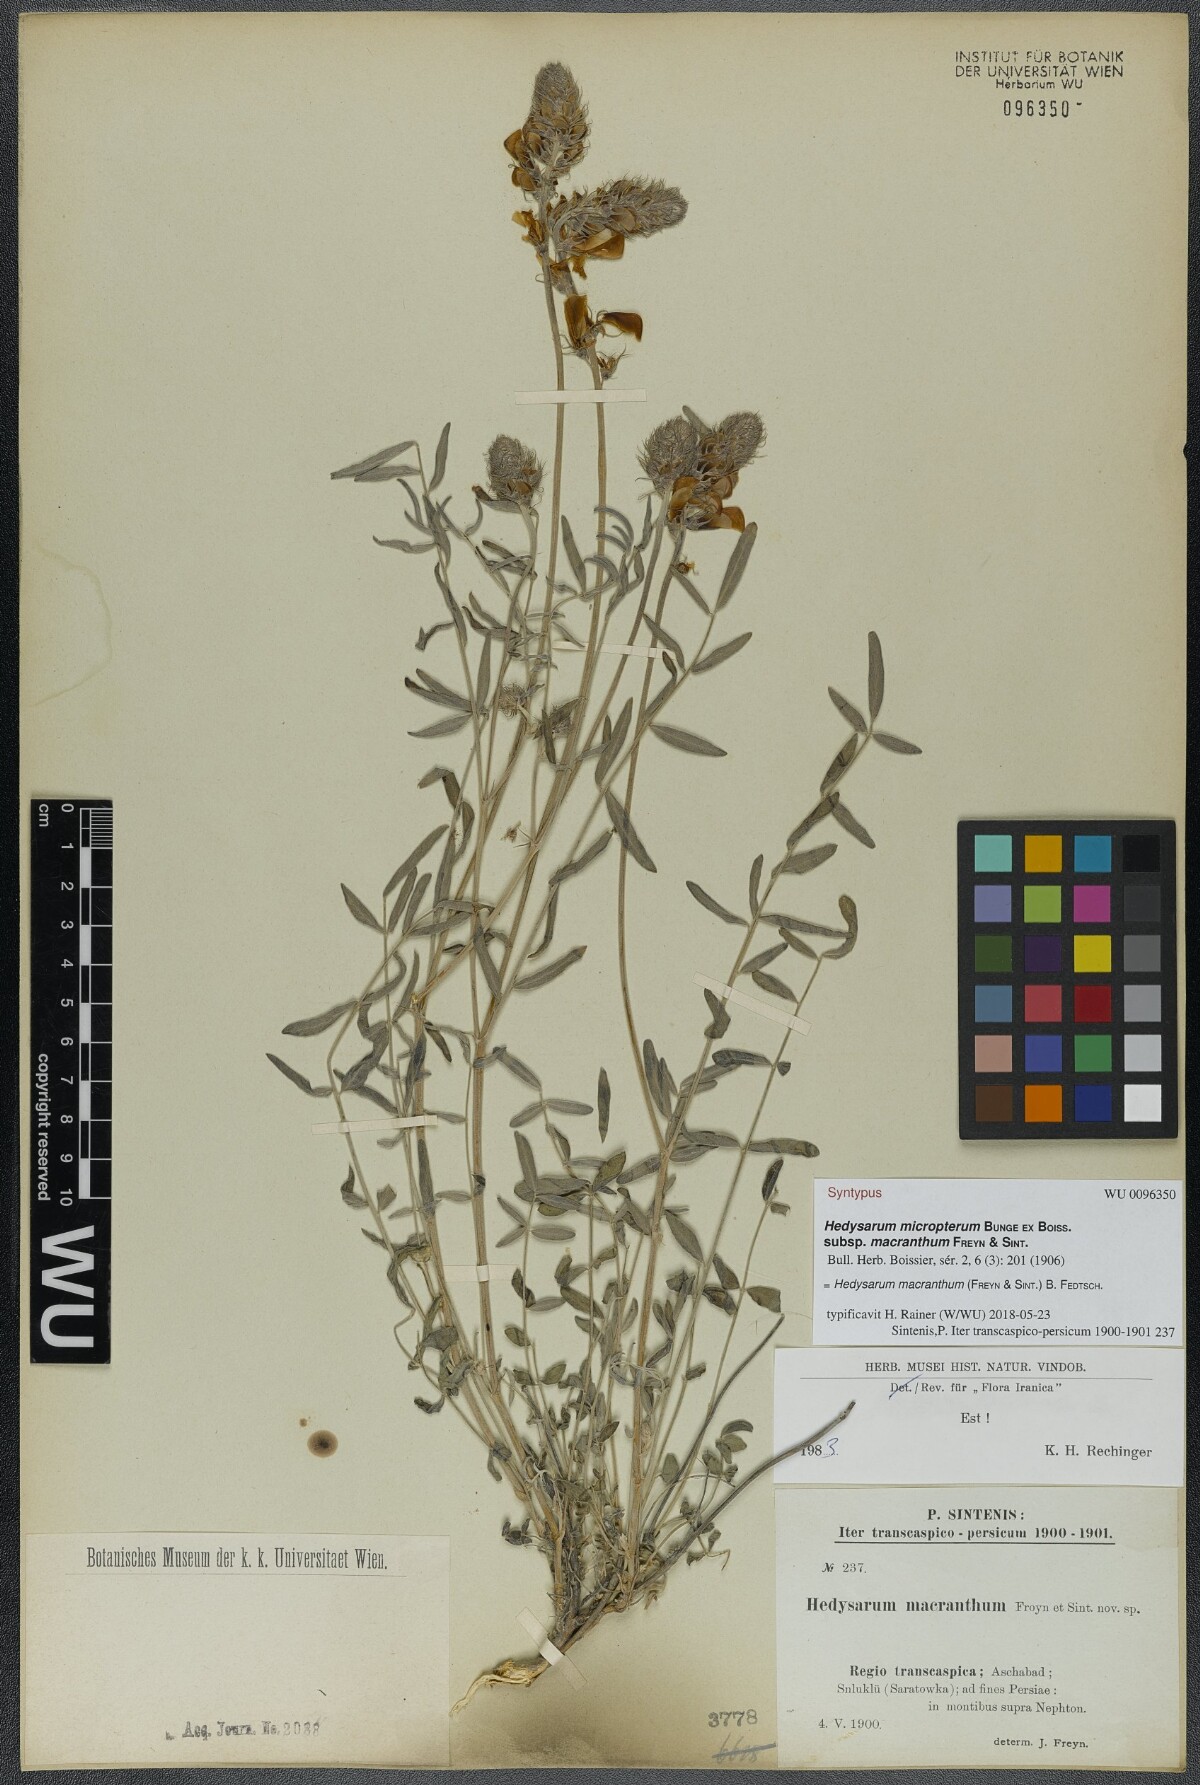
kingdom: Plantae
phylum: Tracheophyta
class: Magnoliopsida
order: Fabales
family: Fabaceae
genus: Hedysarum
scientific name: Hedysarum macranthum
